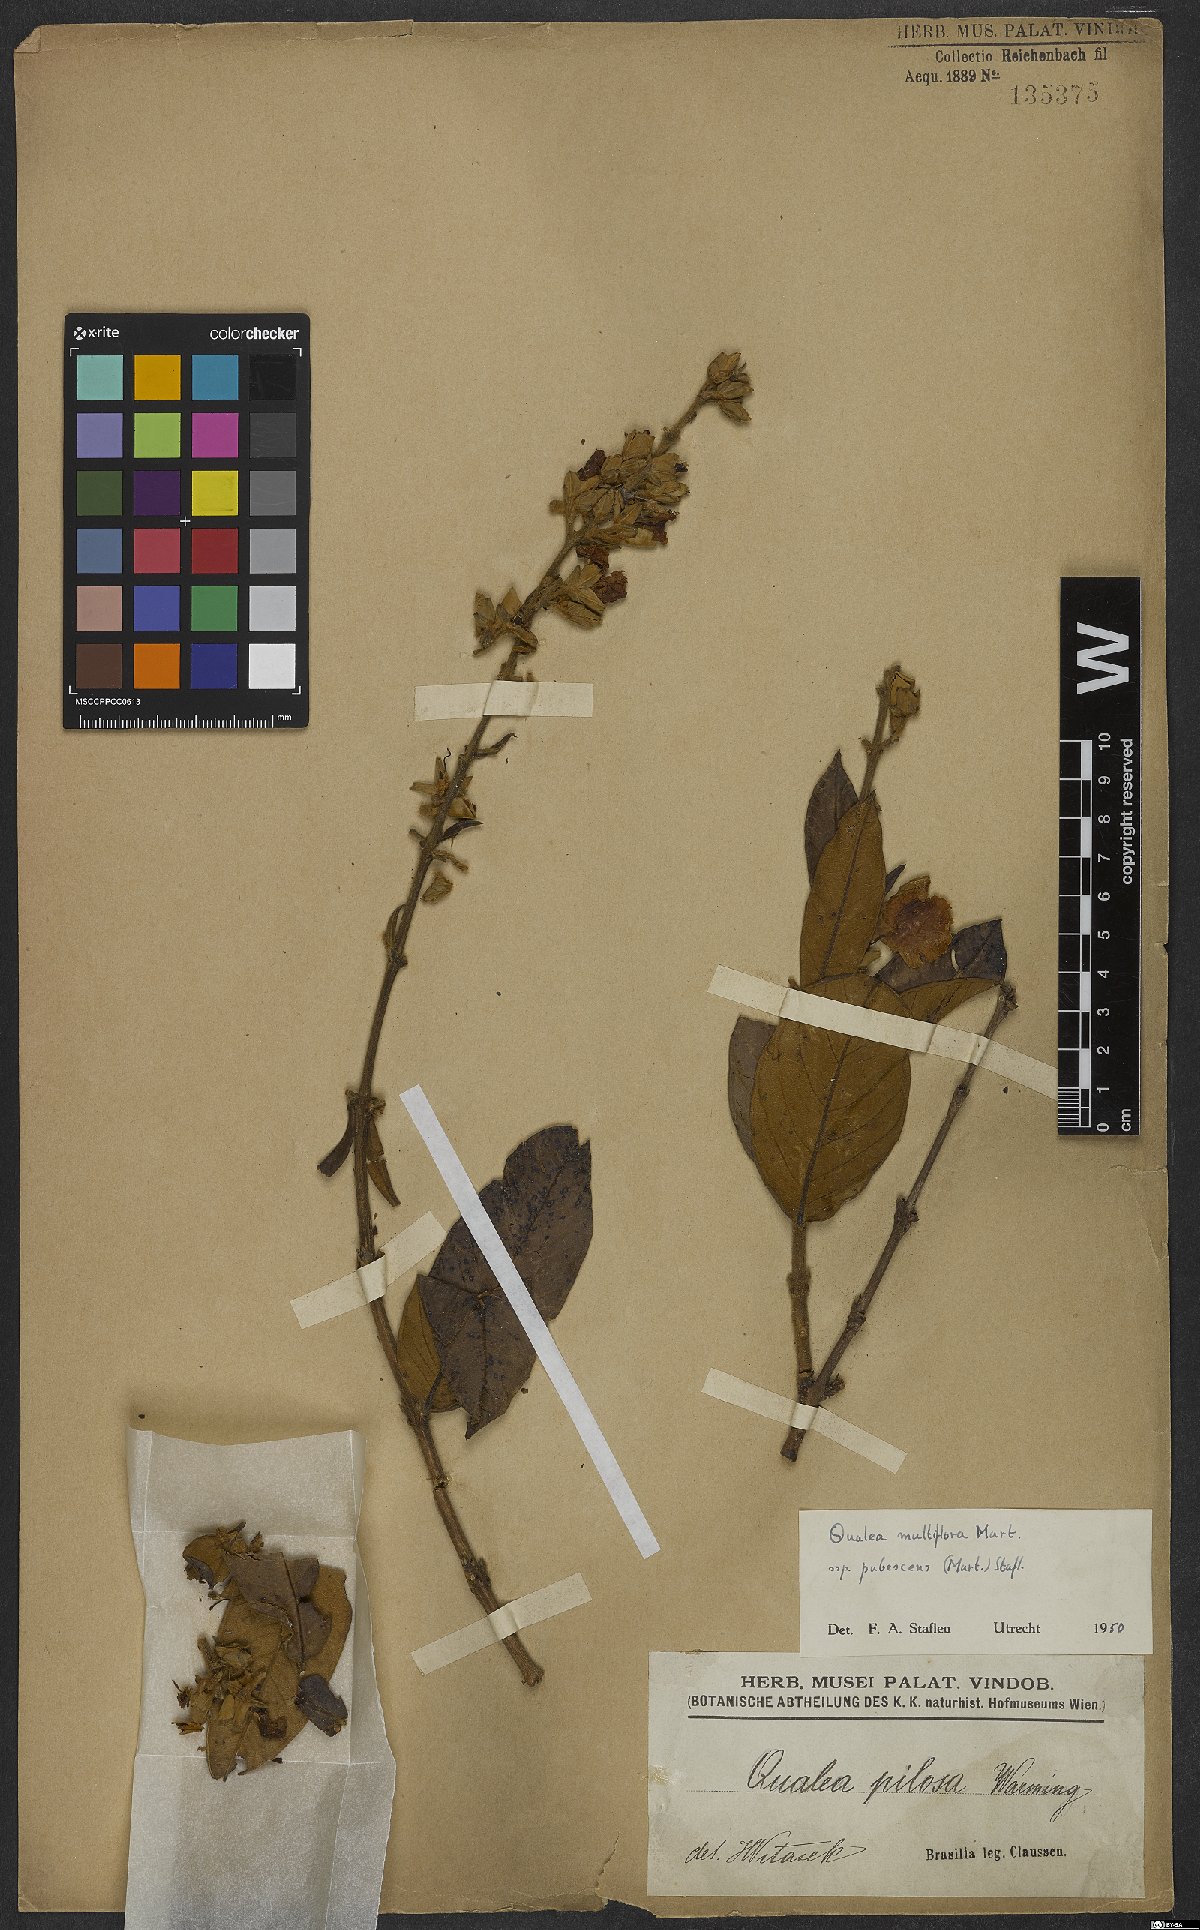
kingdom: Plantae
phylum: Tracheophyta
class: Magnoliopsida
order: Myrtales
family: Vochysiaceae
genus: Qualea
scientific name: Qualea multiflora
